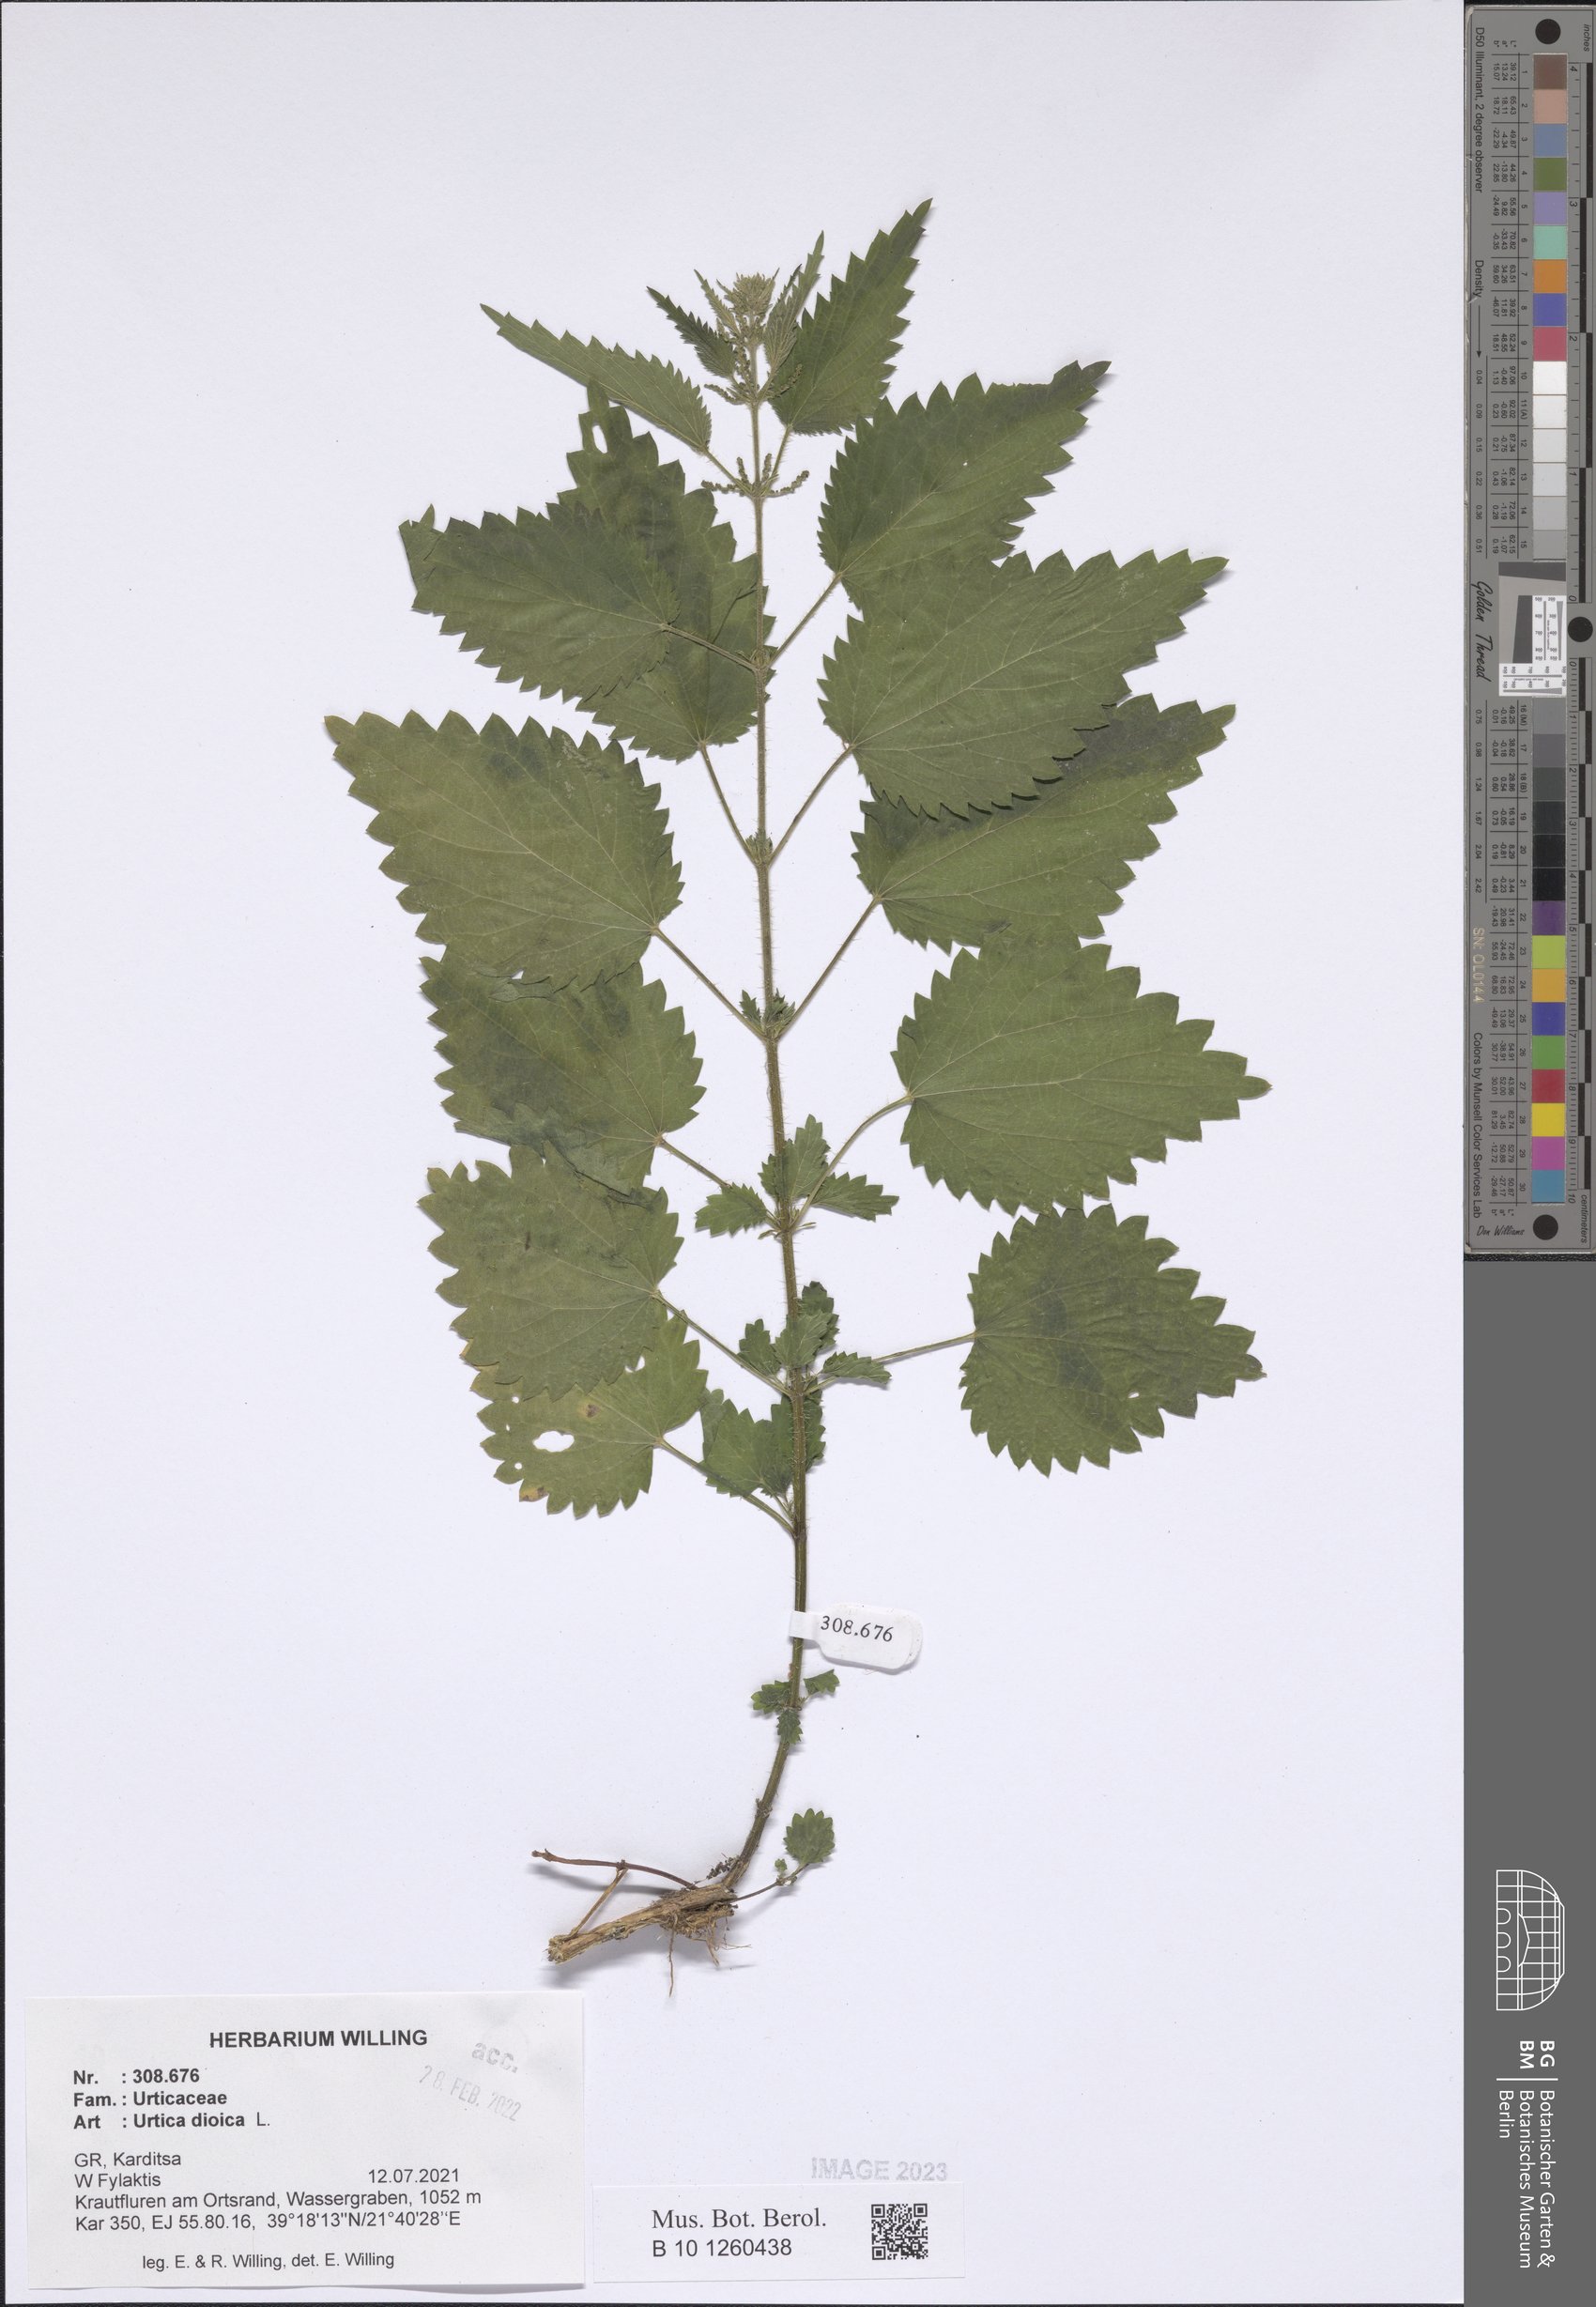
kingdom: Plantae
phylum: Tracheophyta
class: Magnoliopsida
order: Rosales
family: Urticaceae
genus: Urtica
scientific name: Urtica dioica
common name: Common nettle
